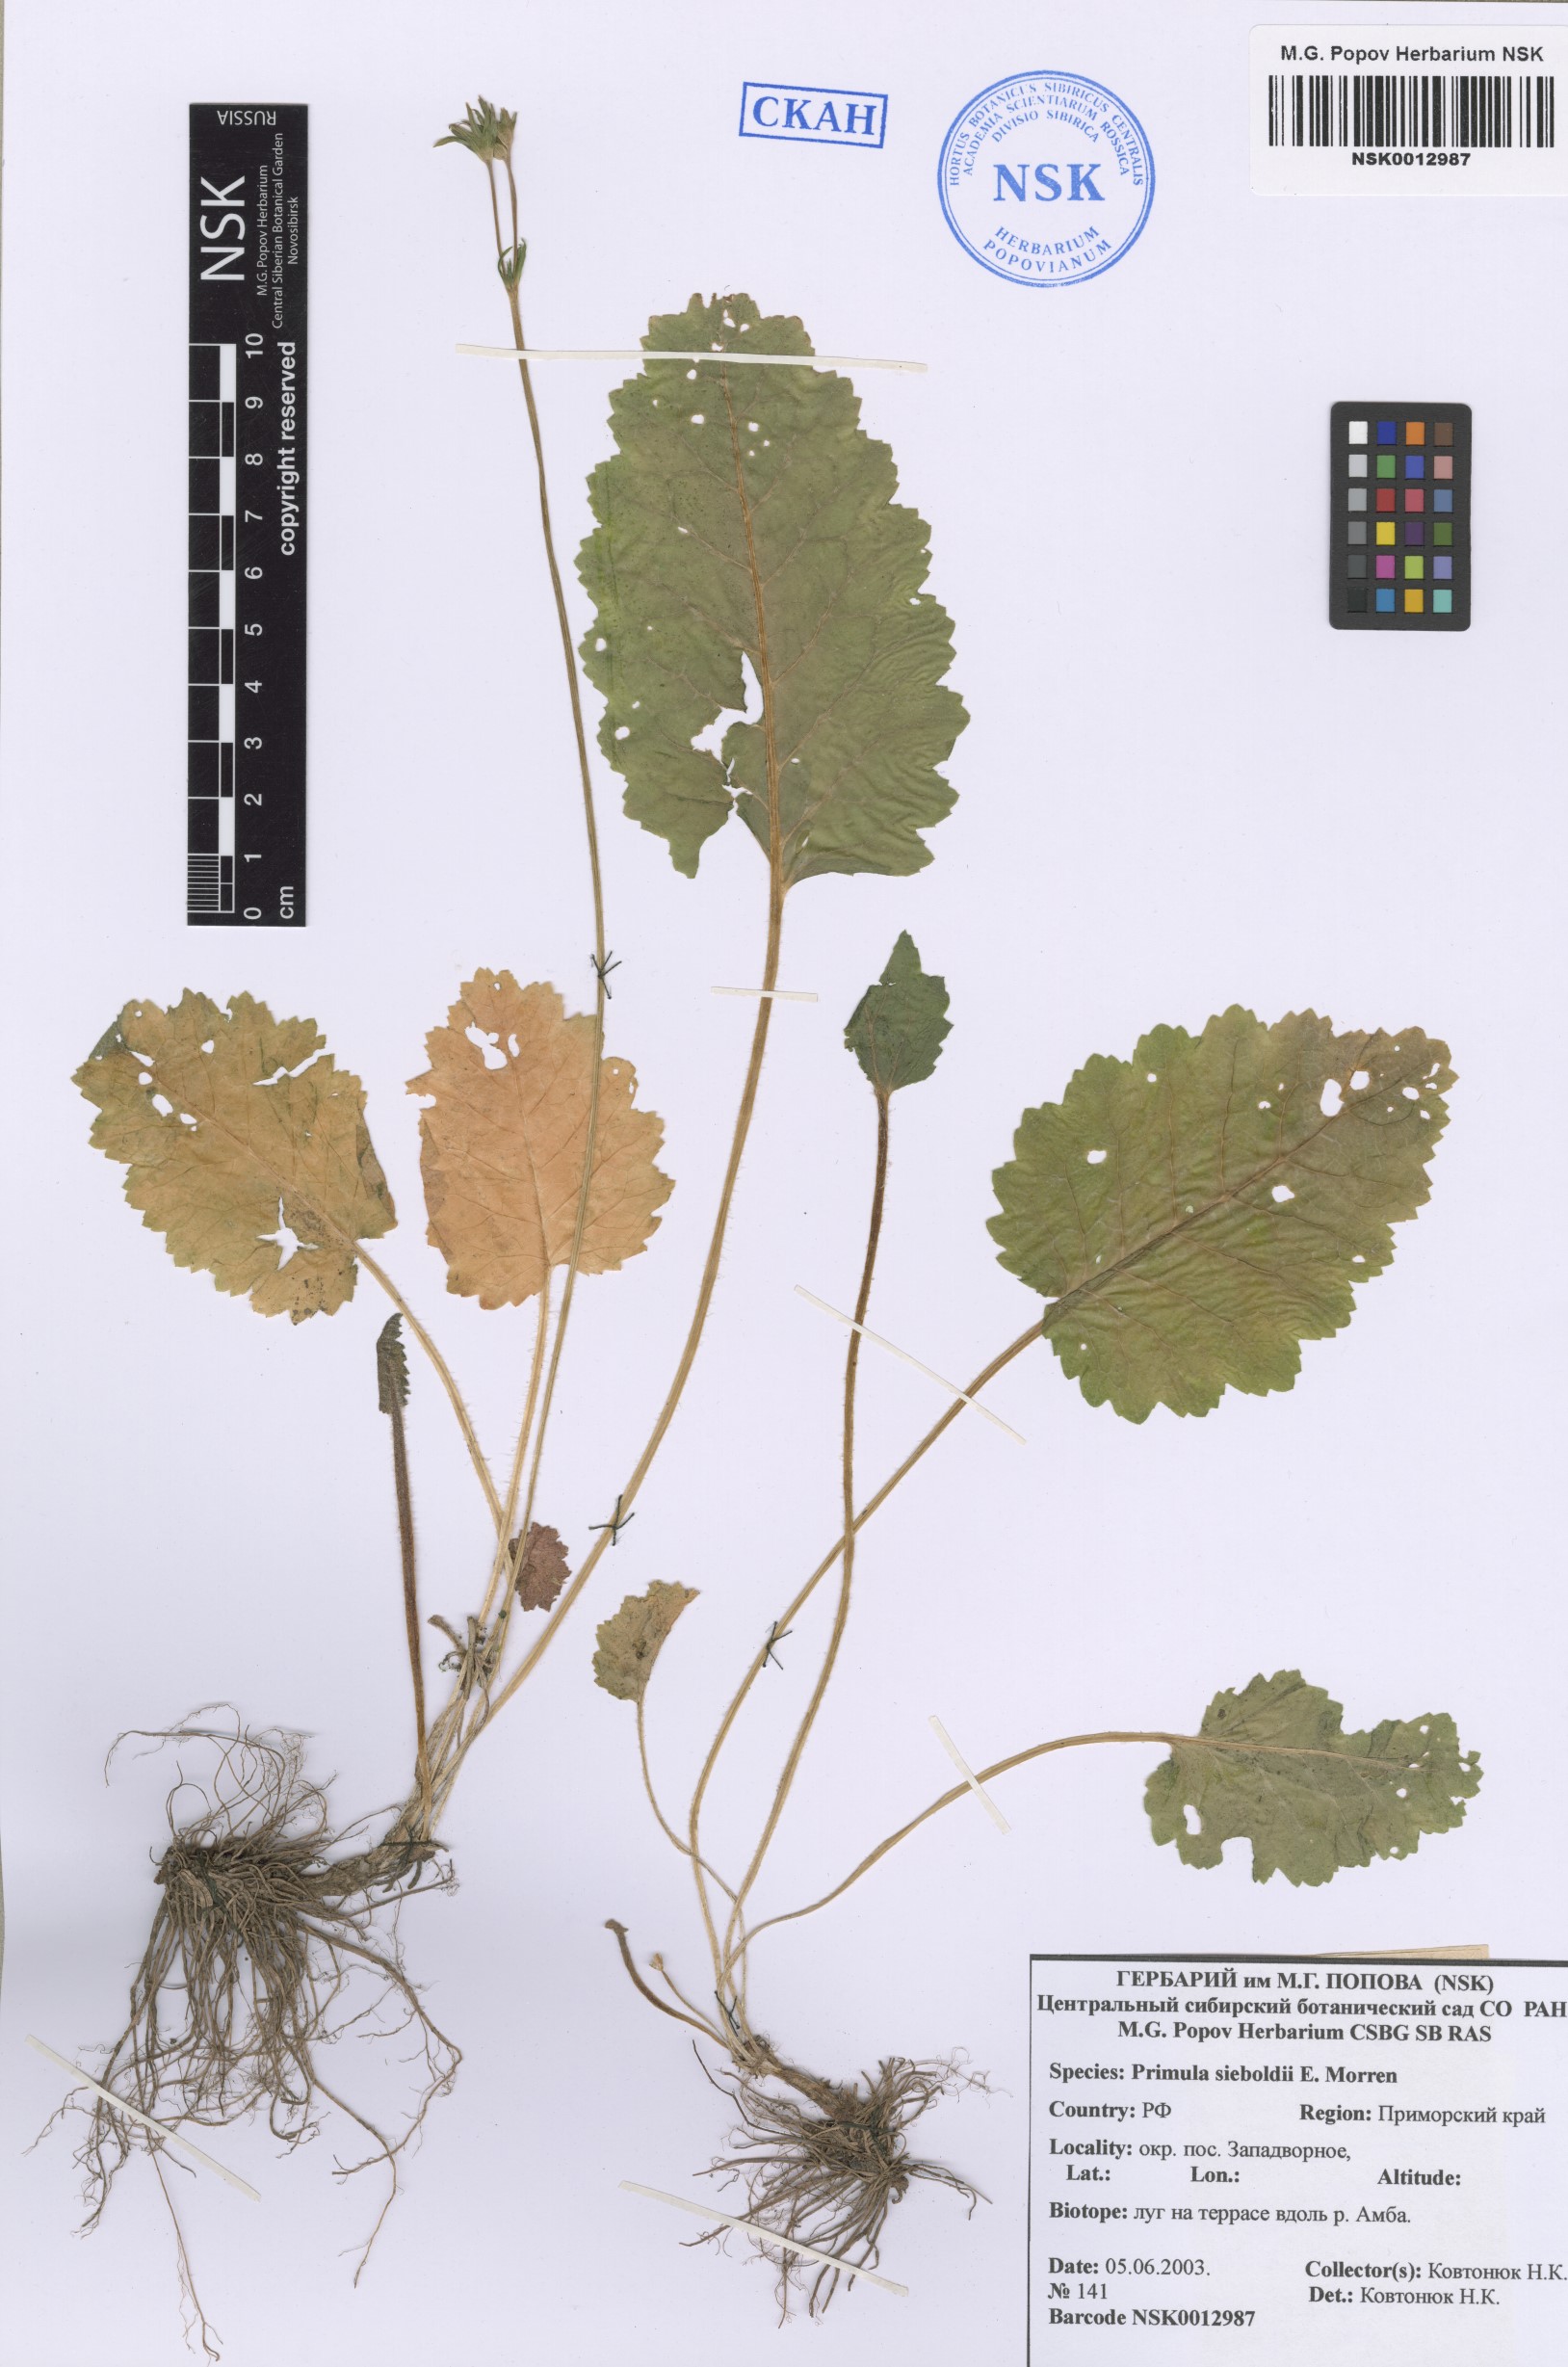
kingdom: Plantae
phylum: Tracheophyta
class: Magnoliopsida
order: Ericales
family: Primulaceae
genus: Primula
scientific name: Primula sieboldii
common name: Japanese primrose
